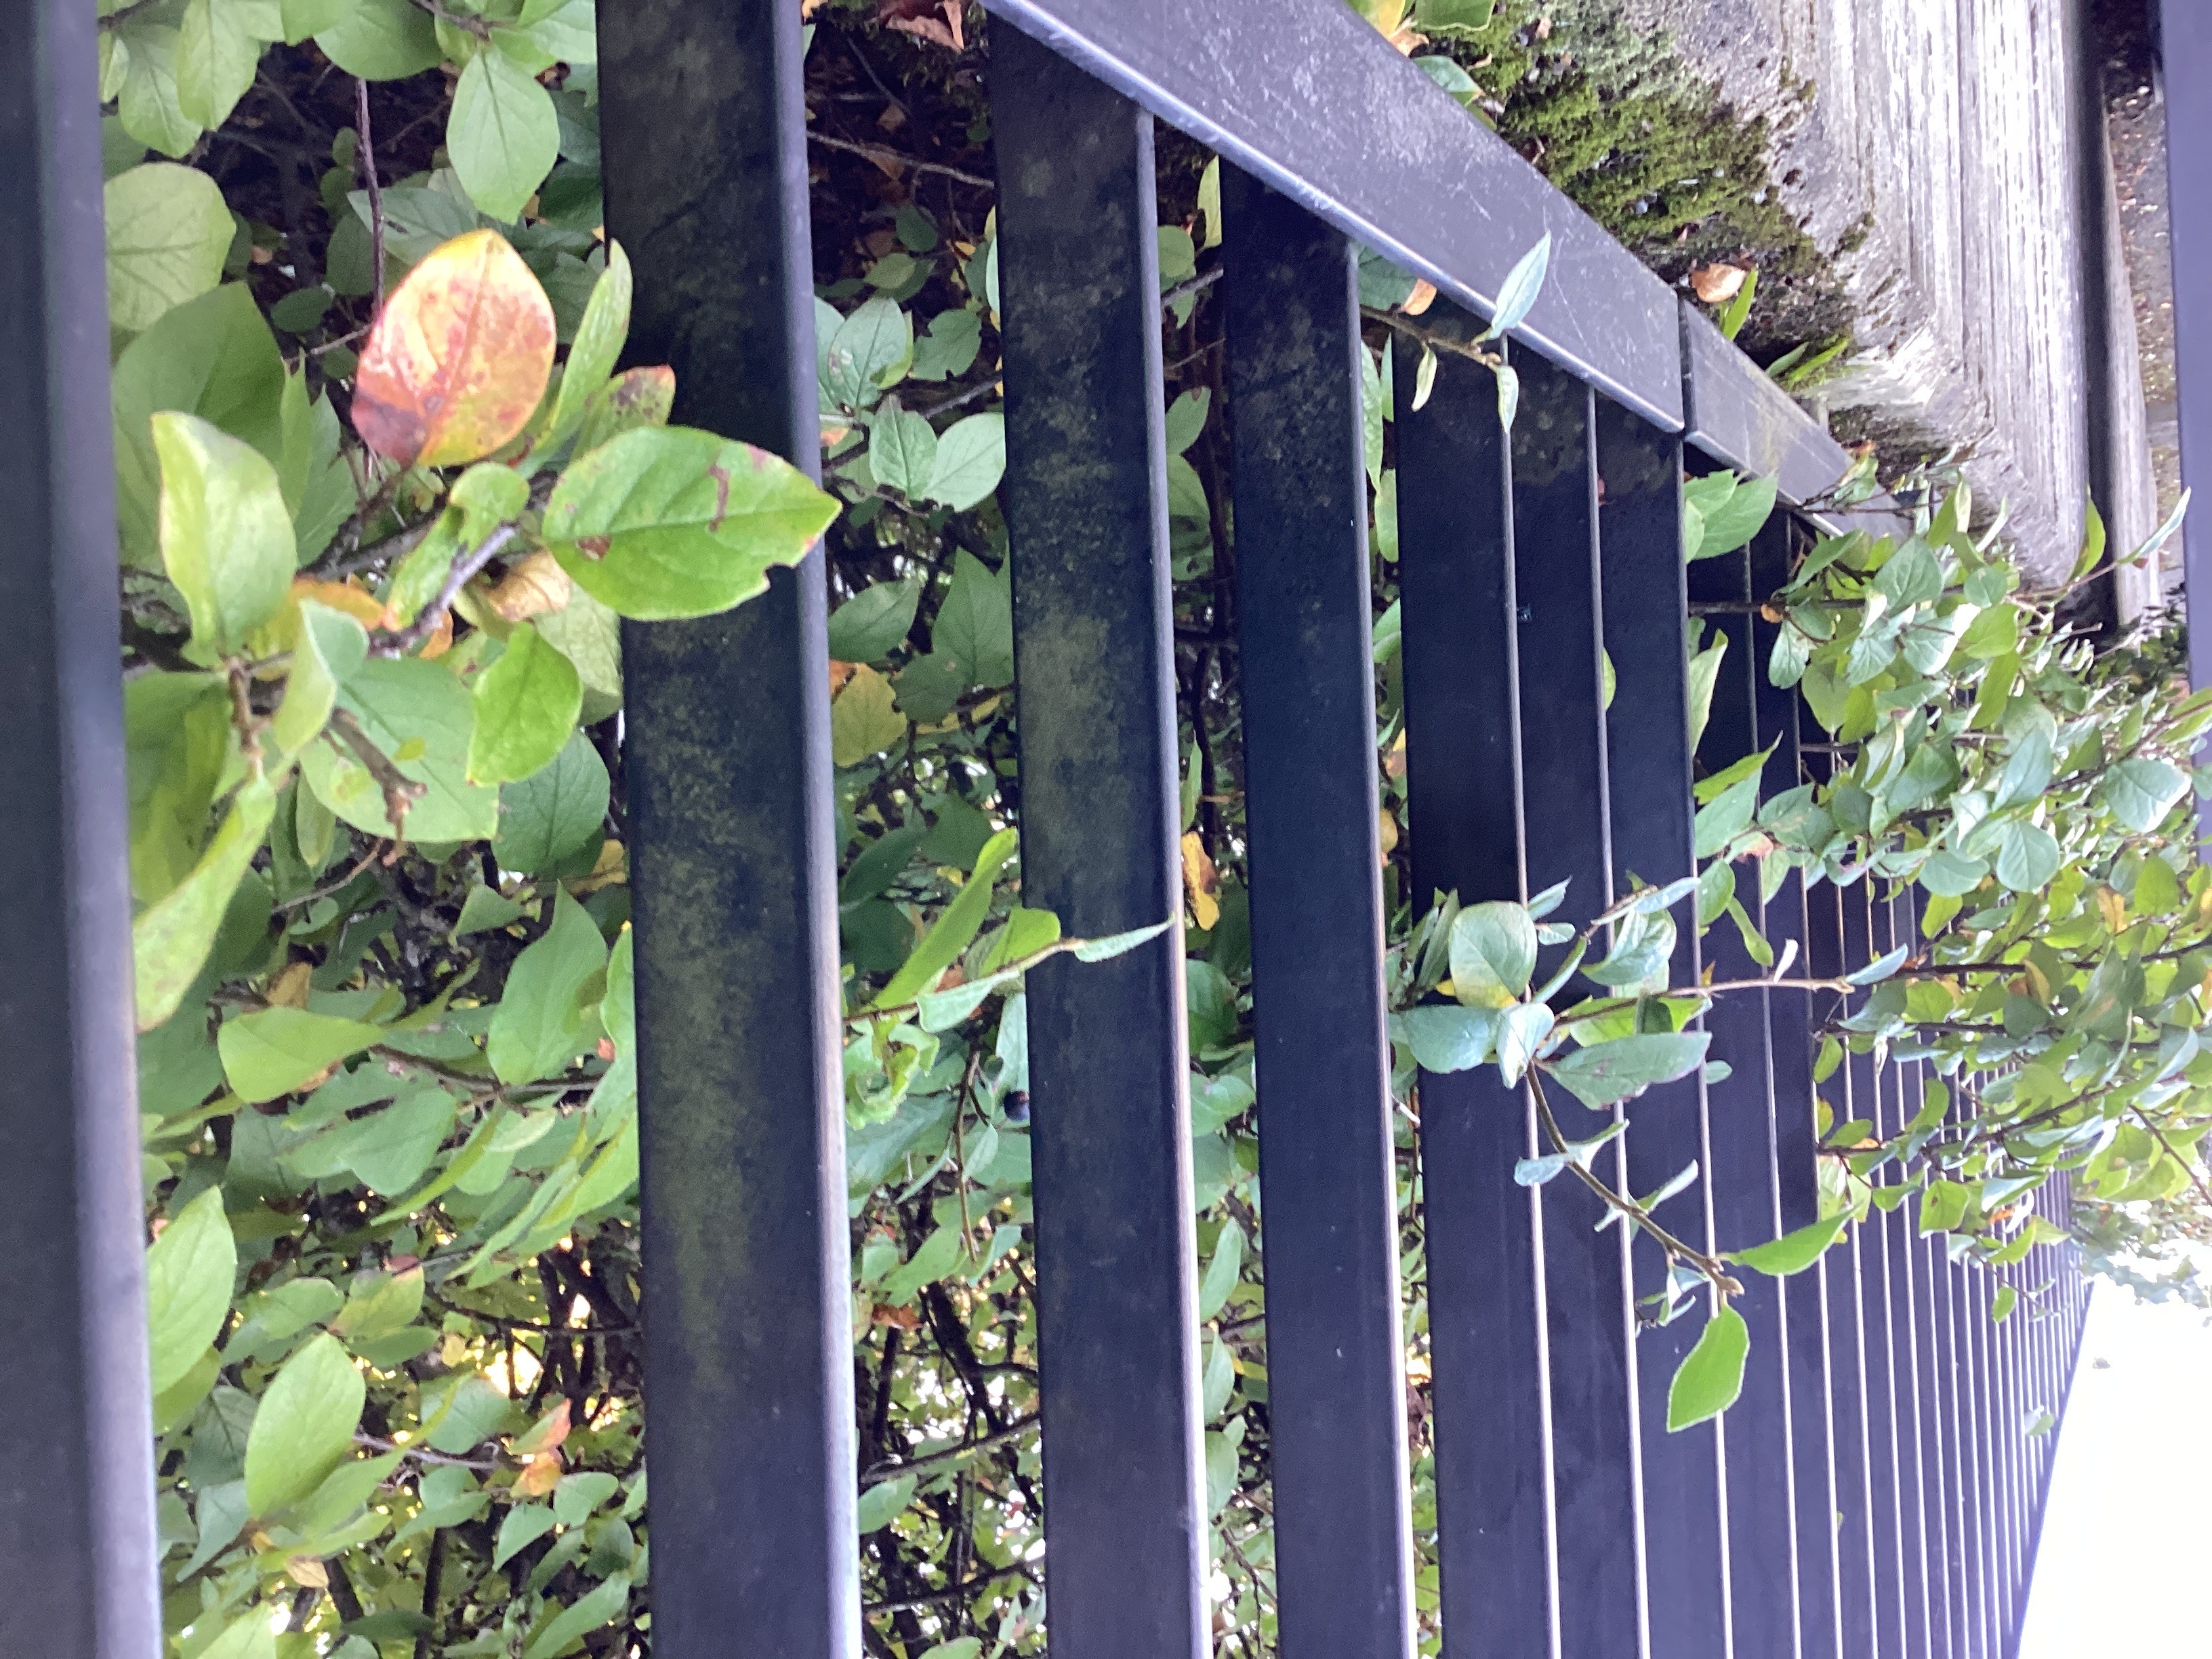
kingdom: Plantae
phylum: Tracheophyta
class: Magnoliopsida
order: Rosales
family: Rosaceae
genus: Cotoneaster
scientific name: Cotoneaster acutifolius
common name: blankmispel
